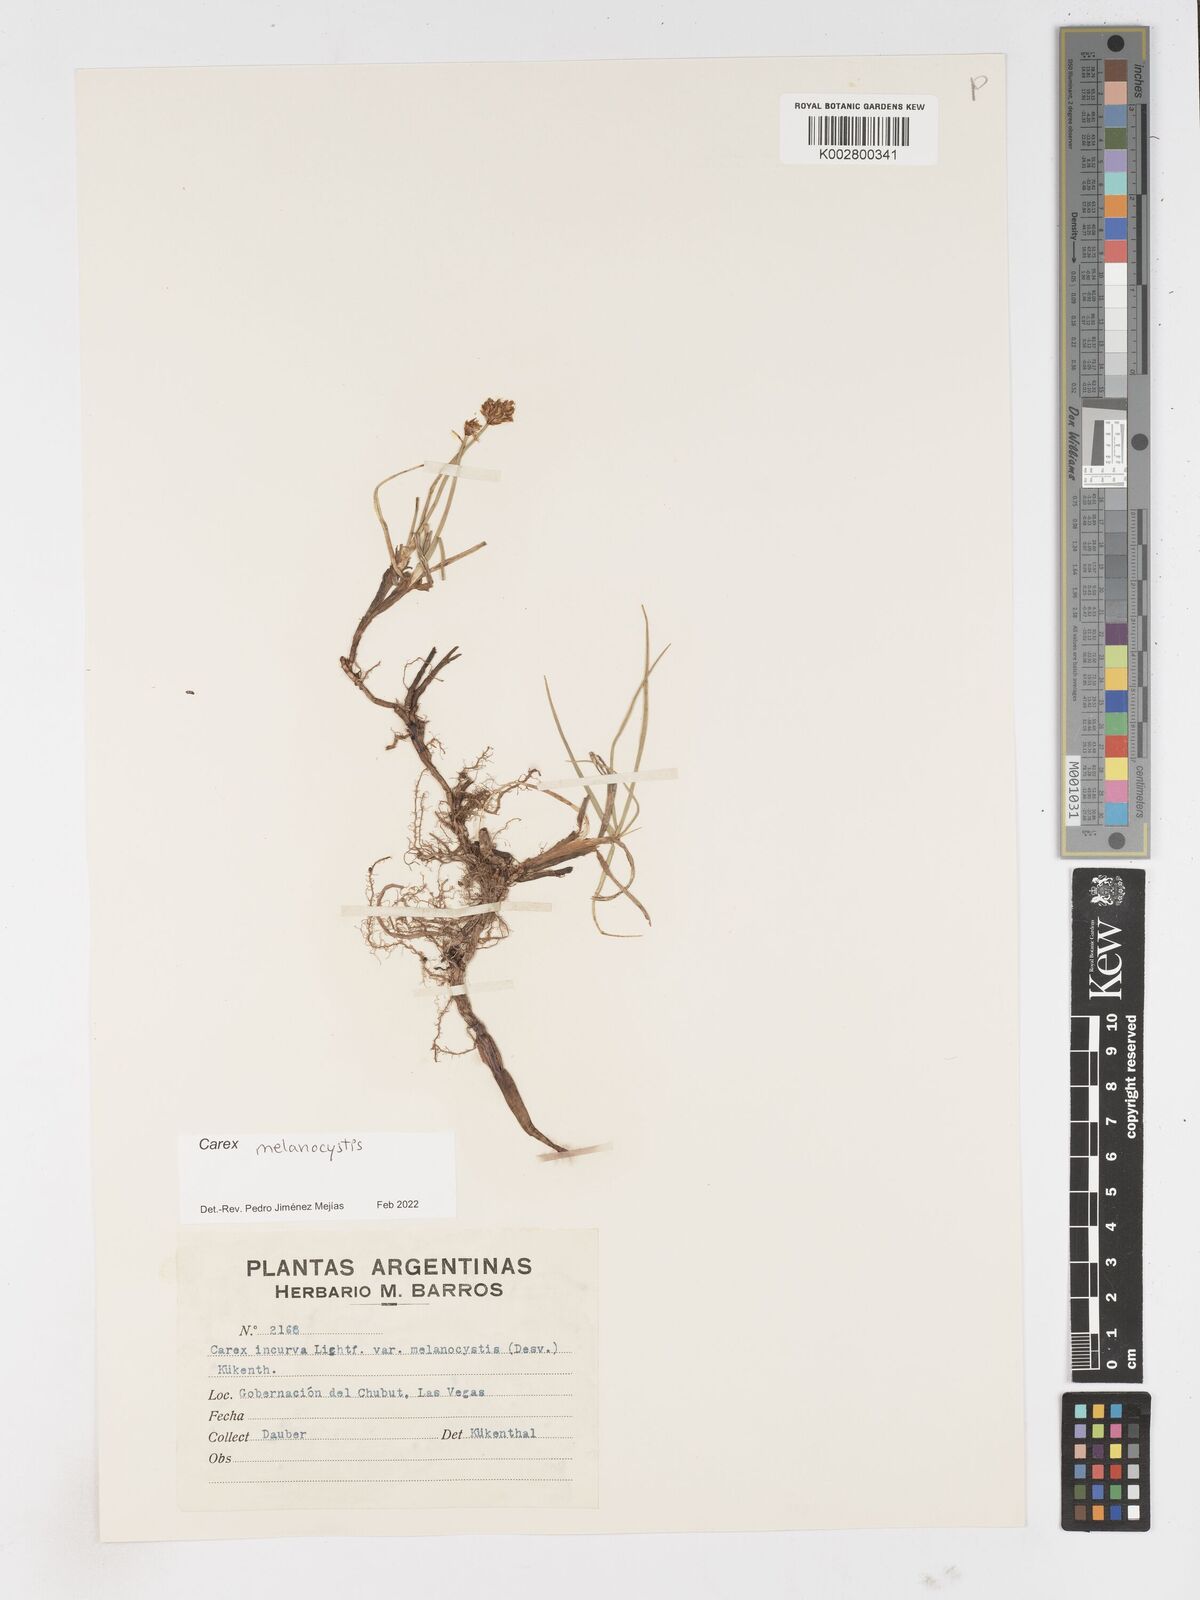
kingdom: Plantae
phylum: Tracheophyta
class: Liliopsida
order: Poales
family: Cyperaceae
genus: Carex
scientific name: Carex melanocystis
